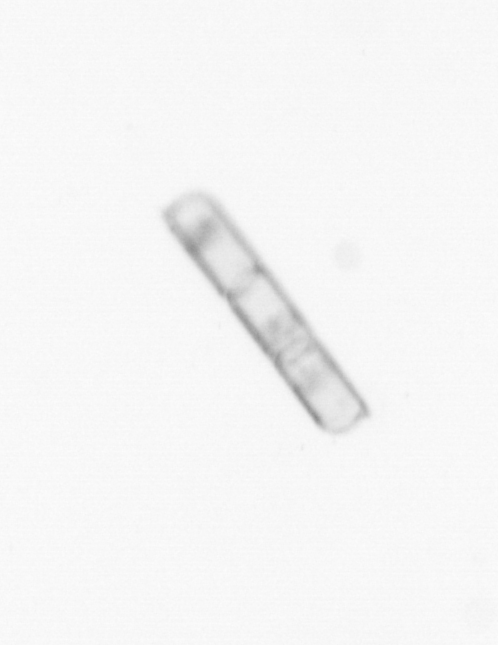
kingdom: Chromista
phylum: Ochrophyta
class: Bacillariophyceae
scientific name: Bacillariophyceae
